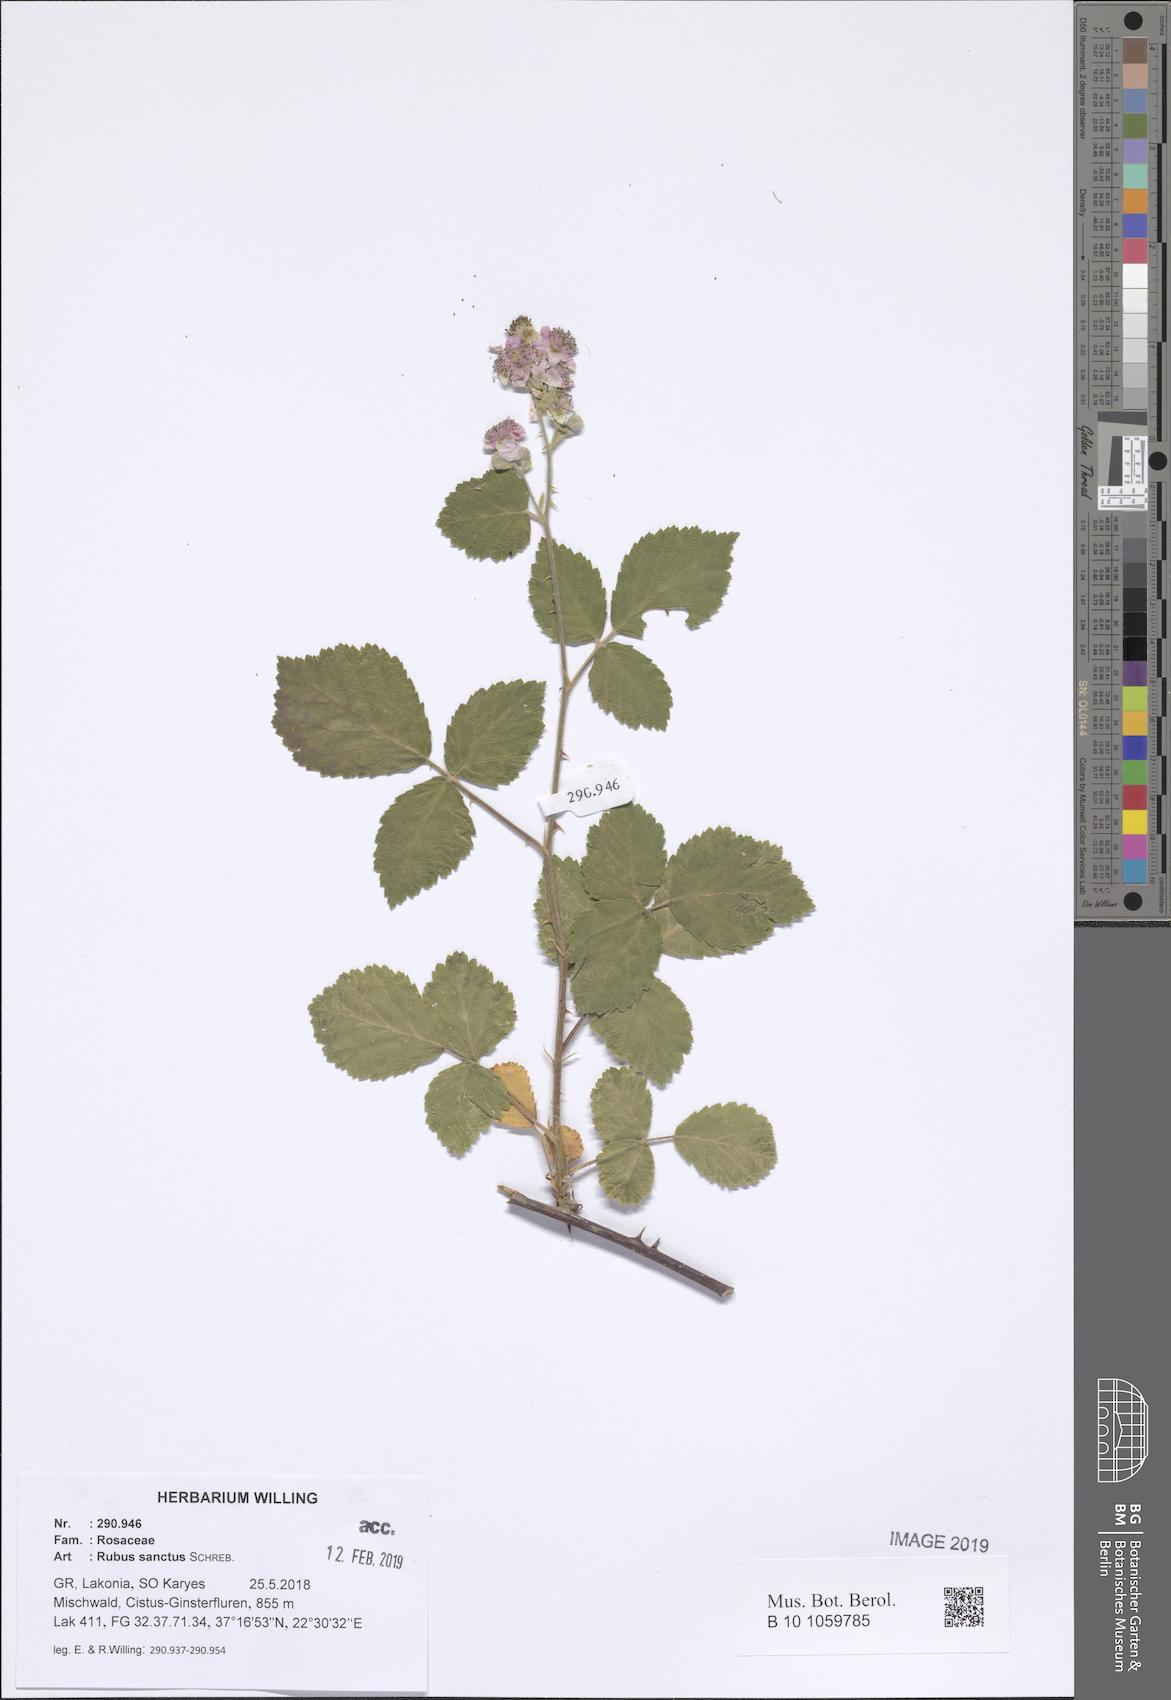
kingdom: Plantae
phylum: Tracheophyta
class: Magnoliopsida
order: Rosales
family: Rosaceae
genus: Rubus
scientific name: Rubus sanctus
